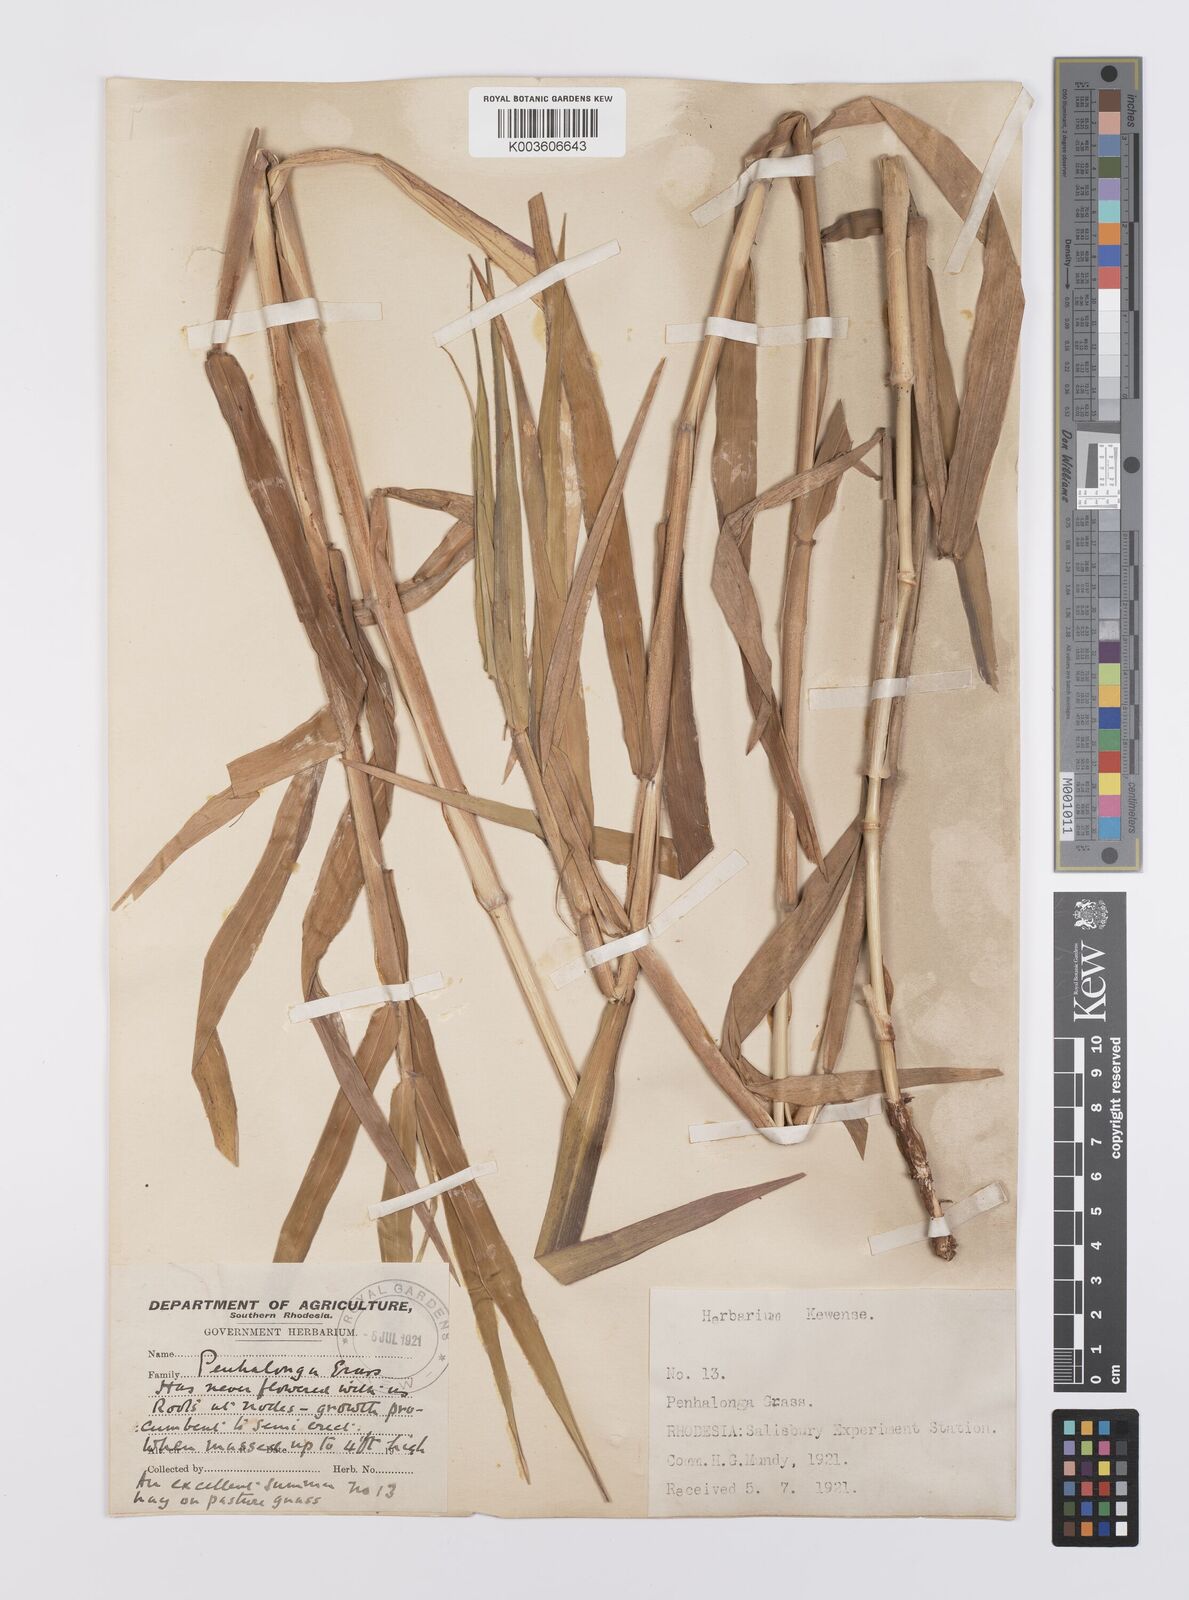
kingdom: Plantae
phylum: Tracheophyta
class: Liliopsida
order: Poales
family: Poaceae
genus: Urochloa
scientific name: Urochloa mutica
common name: Para grass
